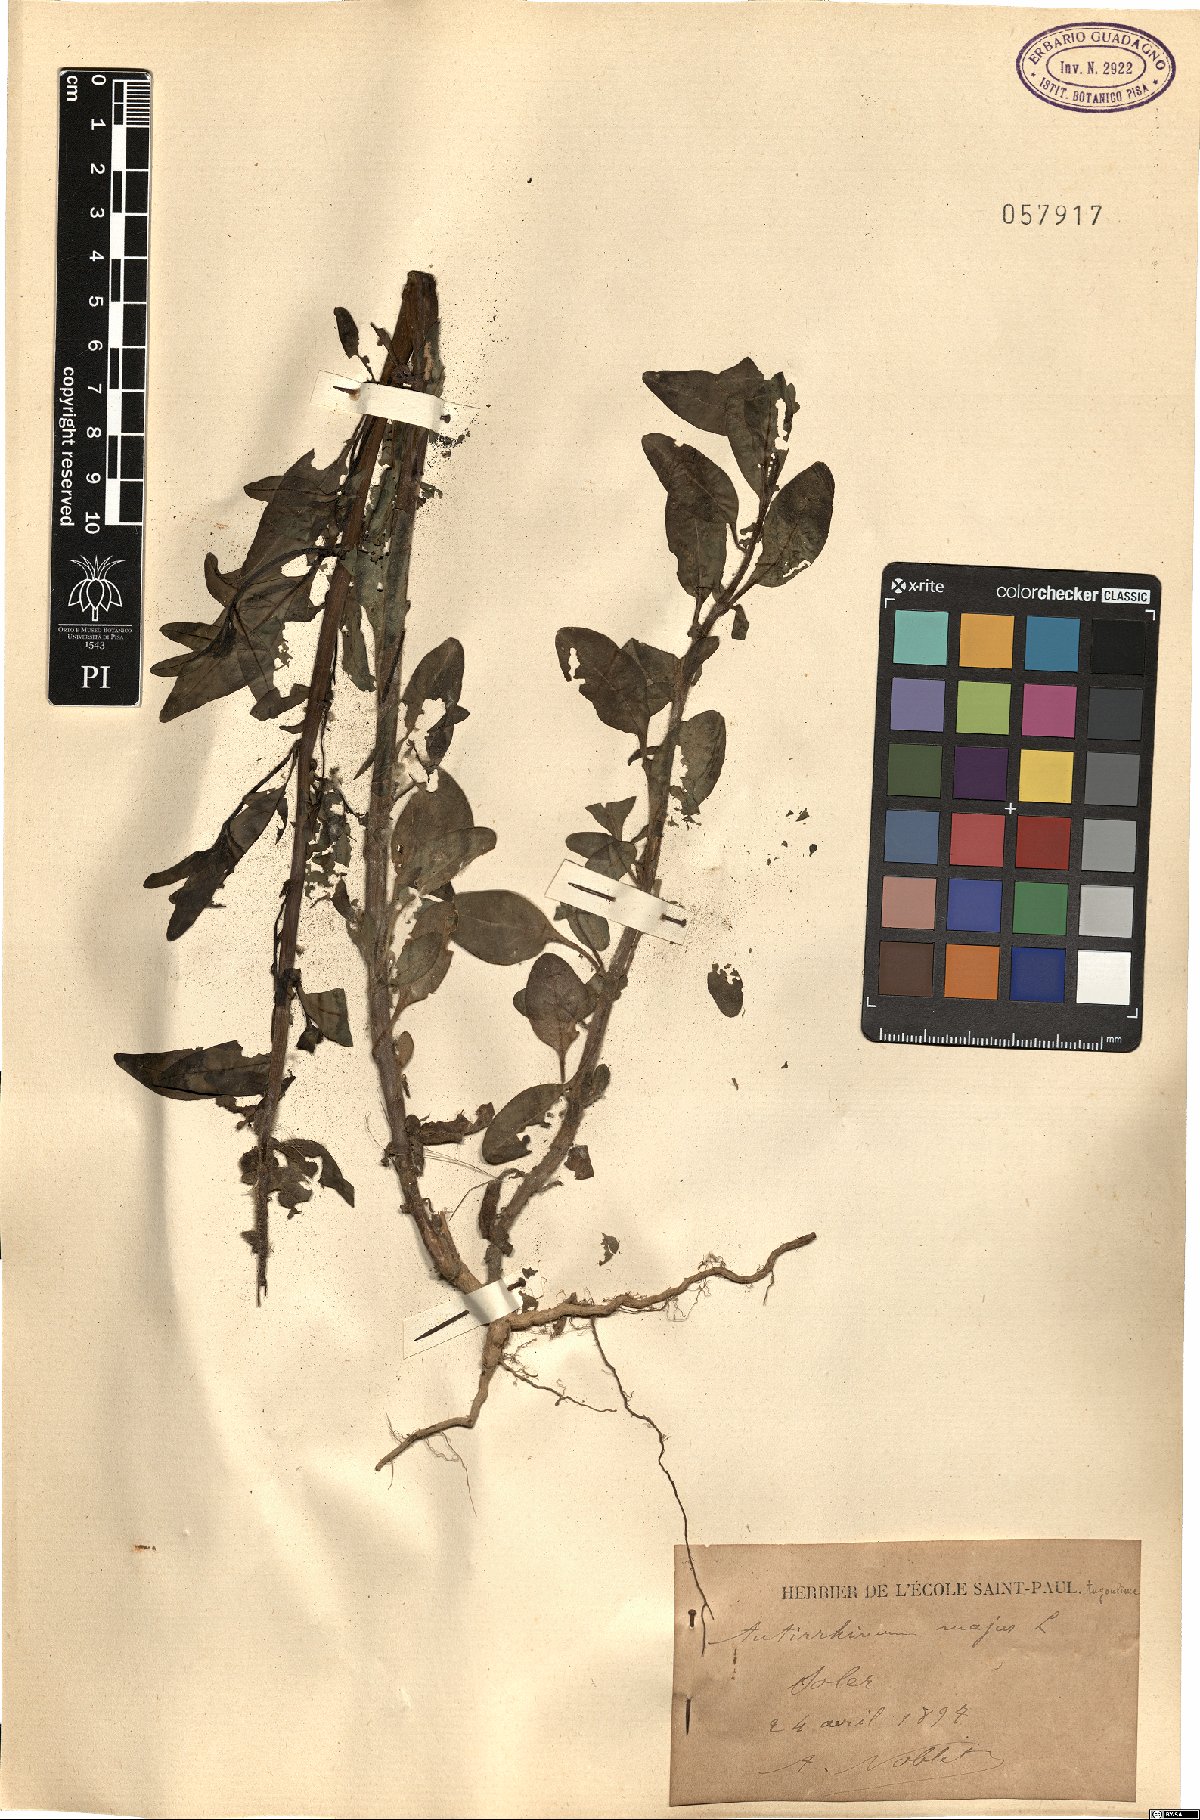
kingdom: Plantae
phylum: Tracheophyta
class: Magnoliopsida
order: Lamiales
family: Plantaginaceae
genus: Antirrhinum
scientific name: Antirrhinum majus
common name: Snapdragon
